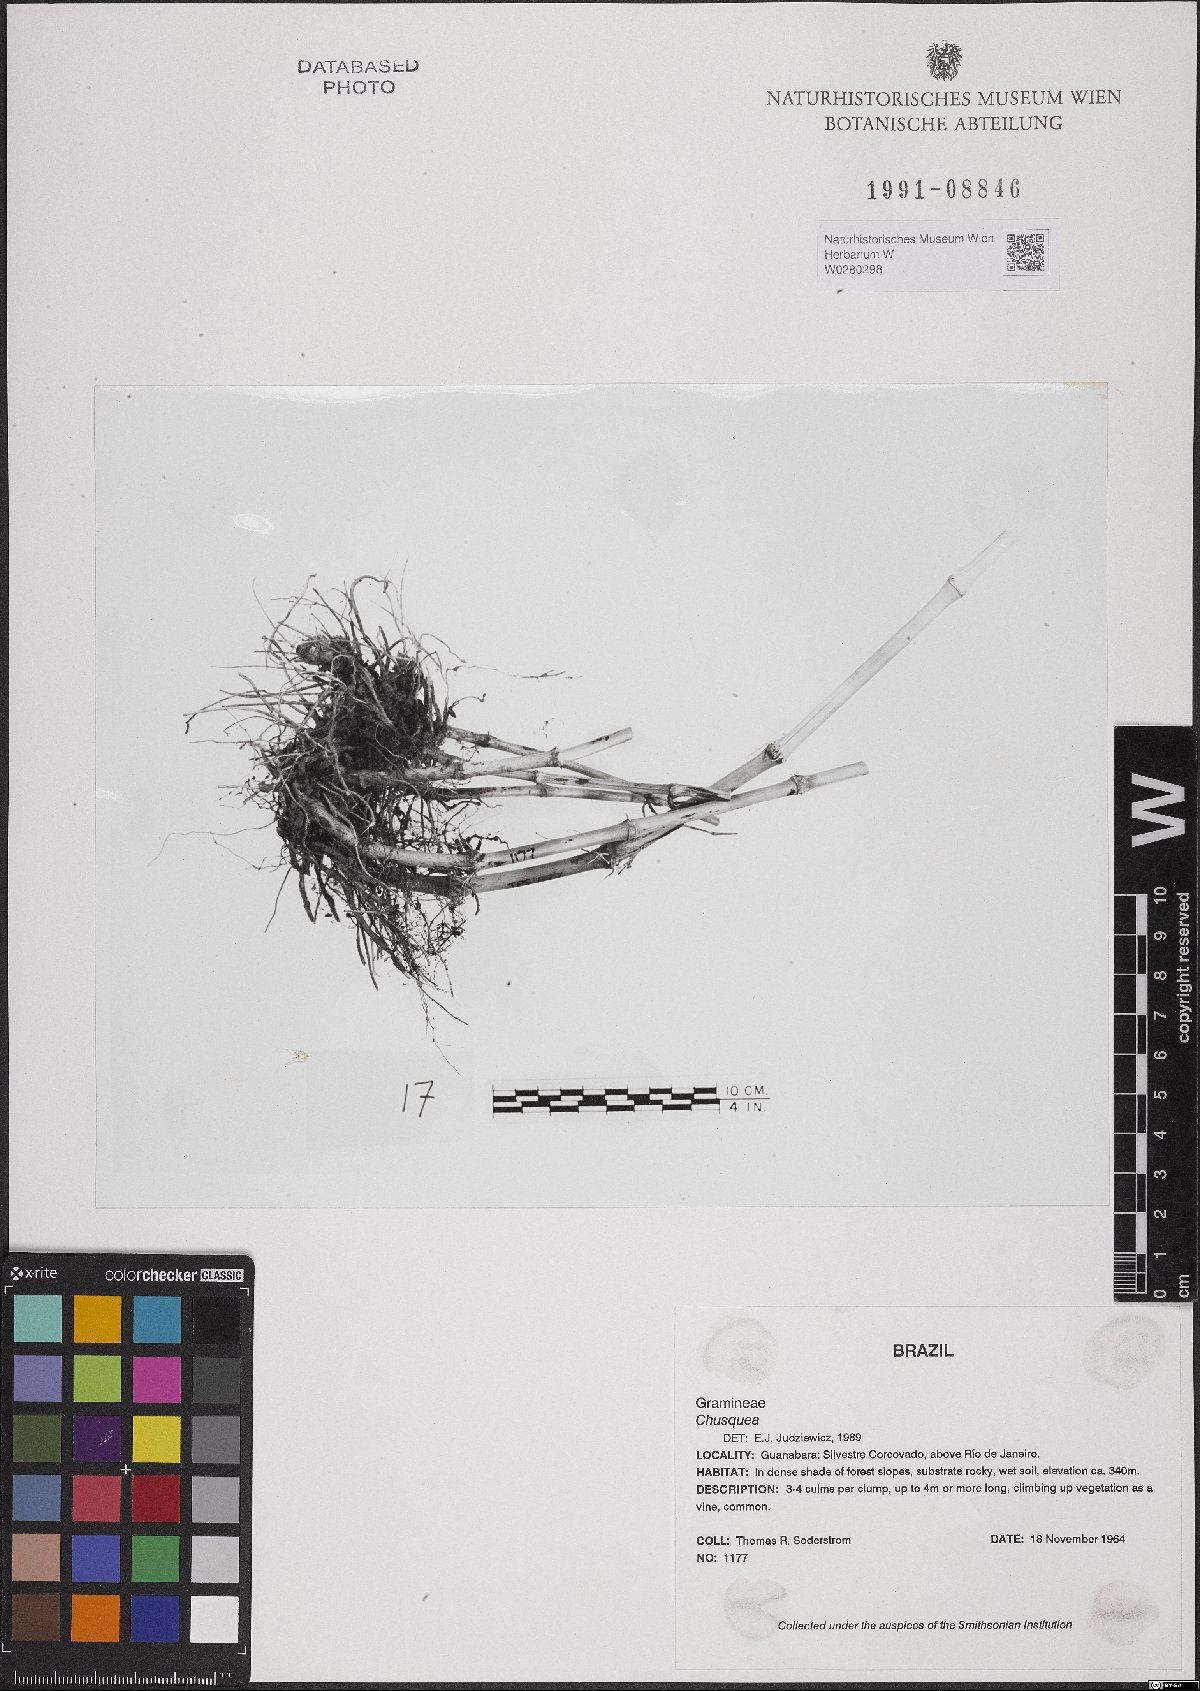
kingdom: Plantae
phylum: Tracheophyta
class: Liliopsida
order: Poales
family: Poaceae
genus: Chusquea
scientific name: Chusquea
